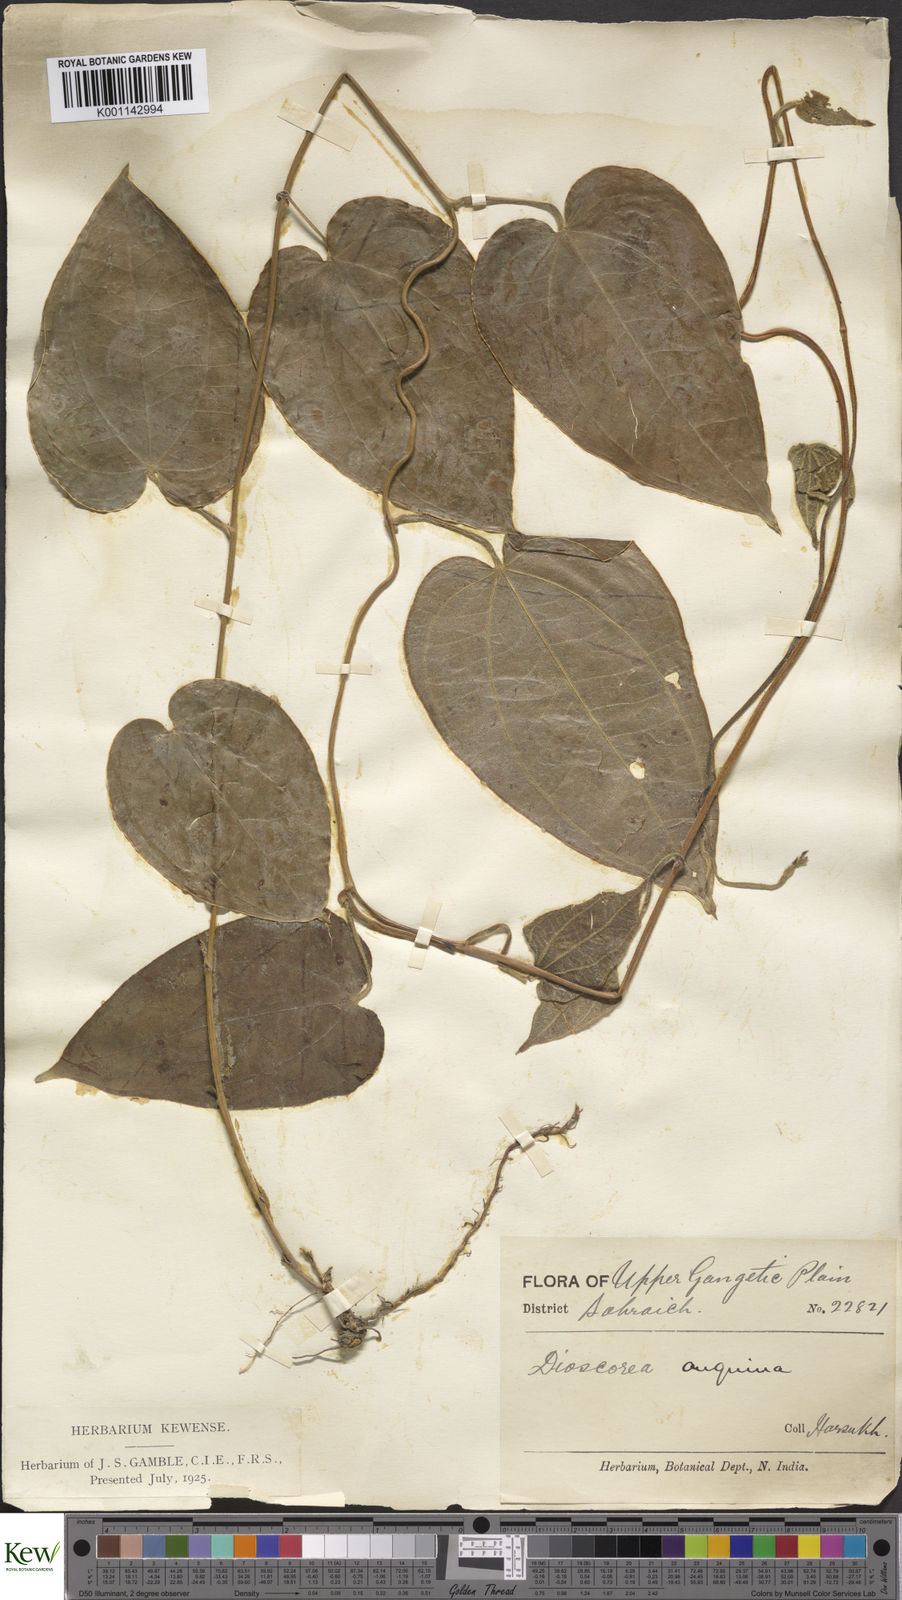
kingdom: Plantae
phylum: Tracheophyta
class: Liliopsida
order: Dioscoreales
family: Dioscoreaceae
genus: Dioscorea
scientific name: Dioscorea pubera
